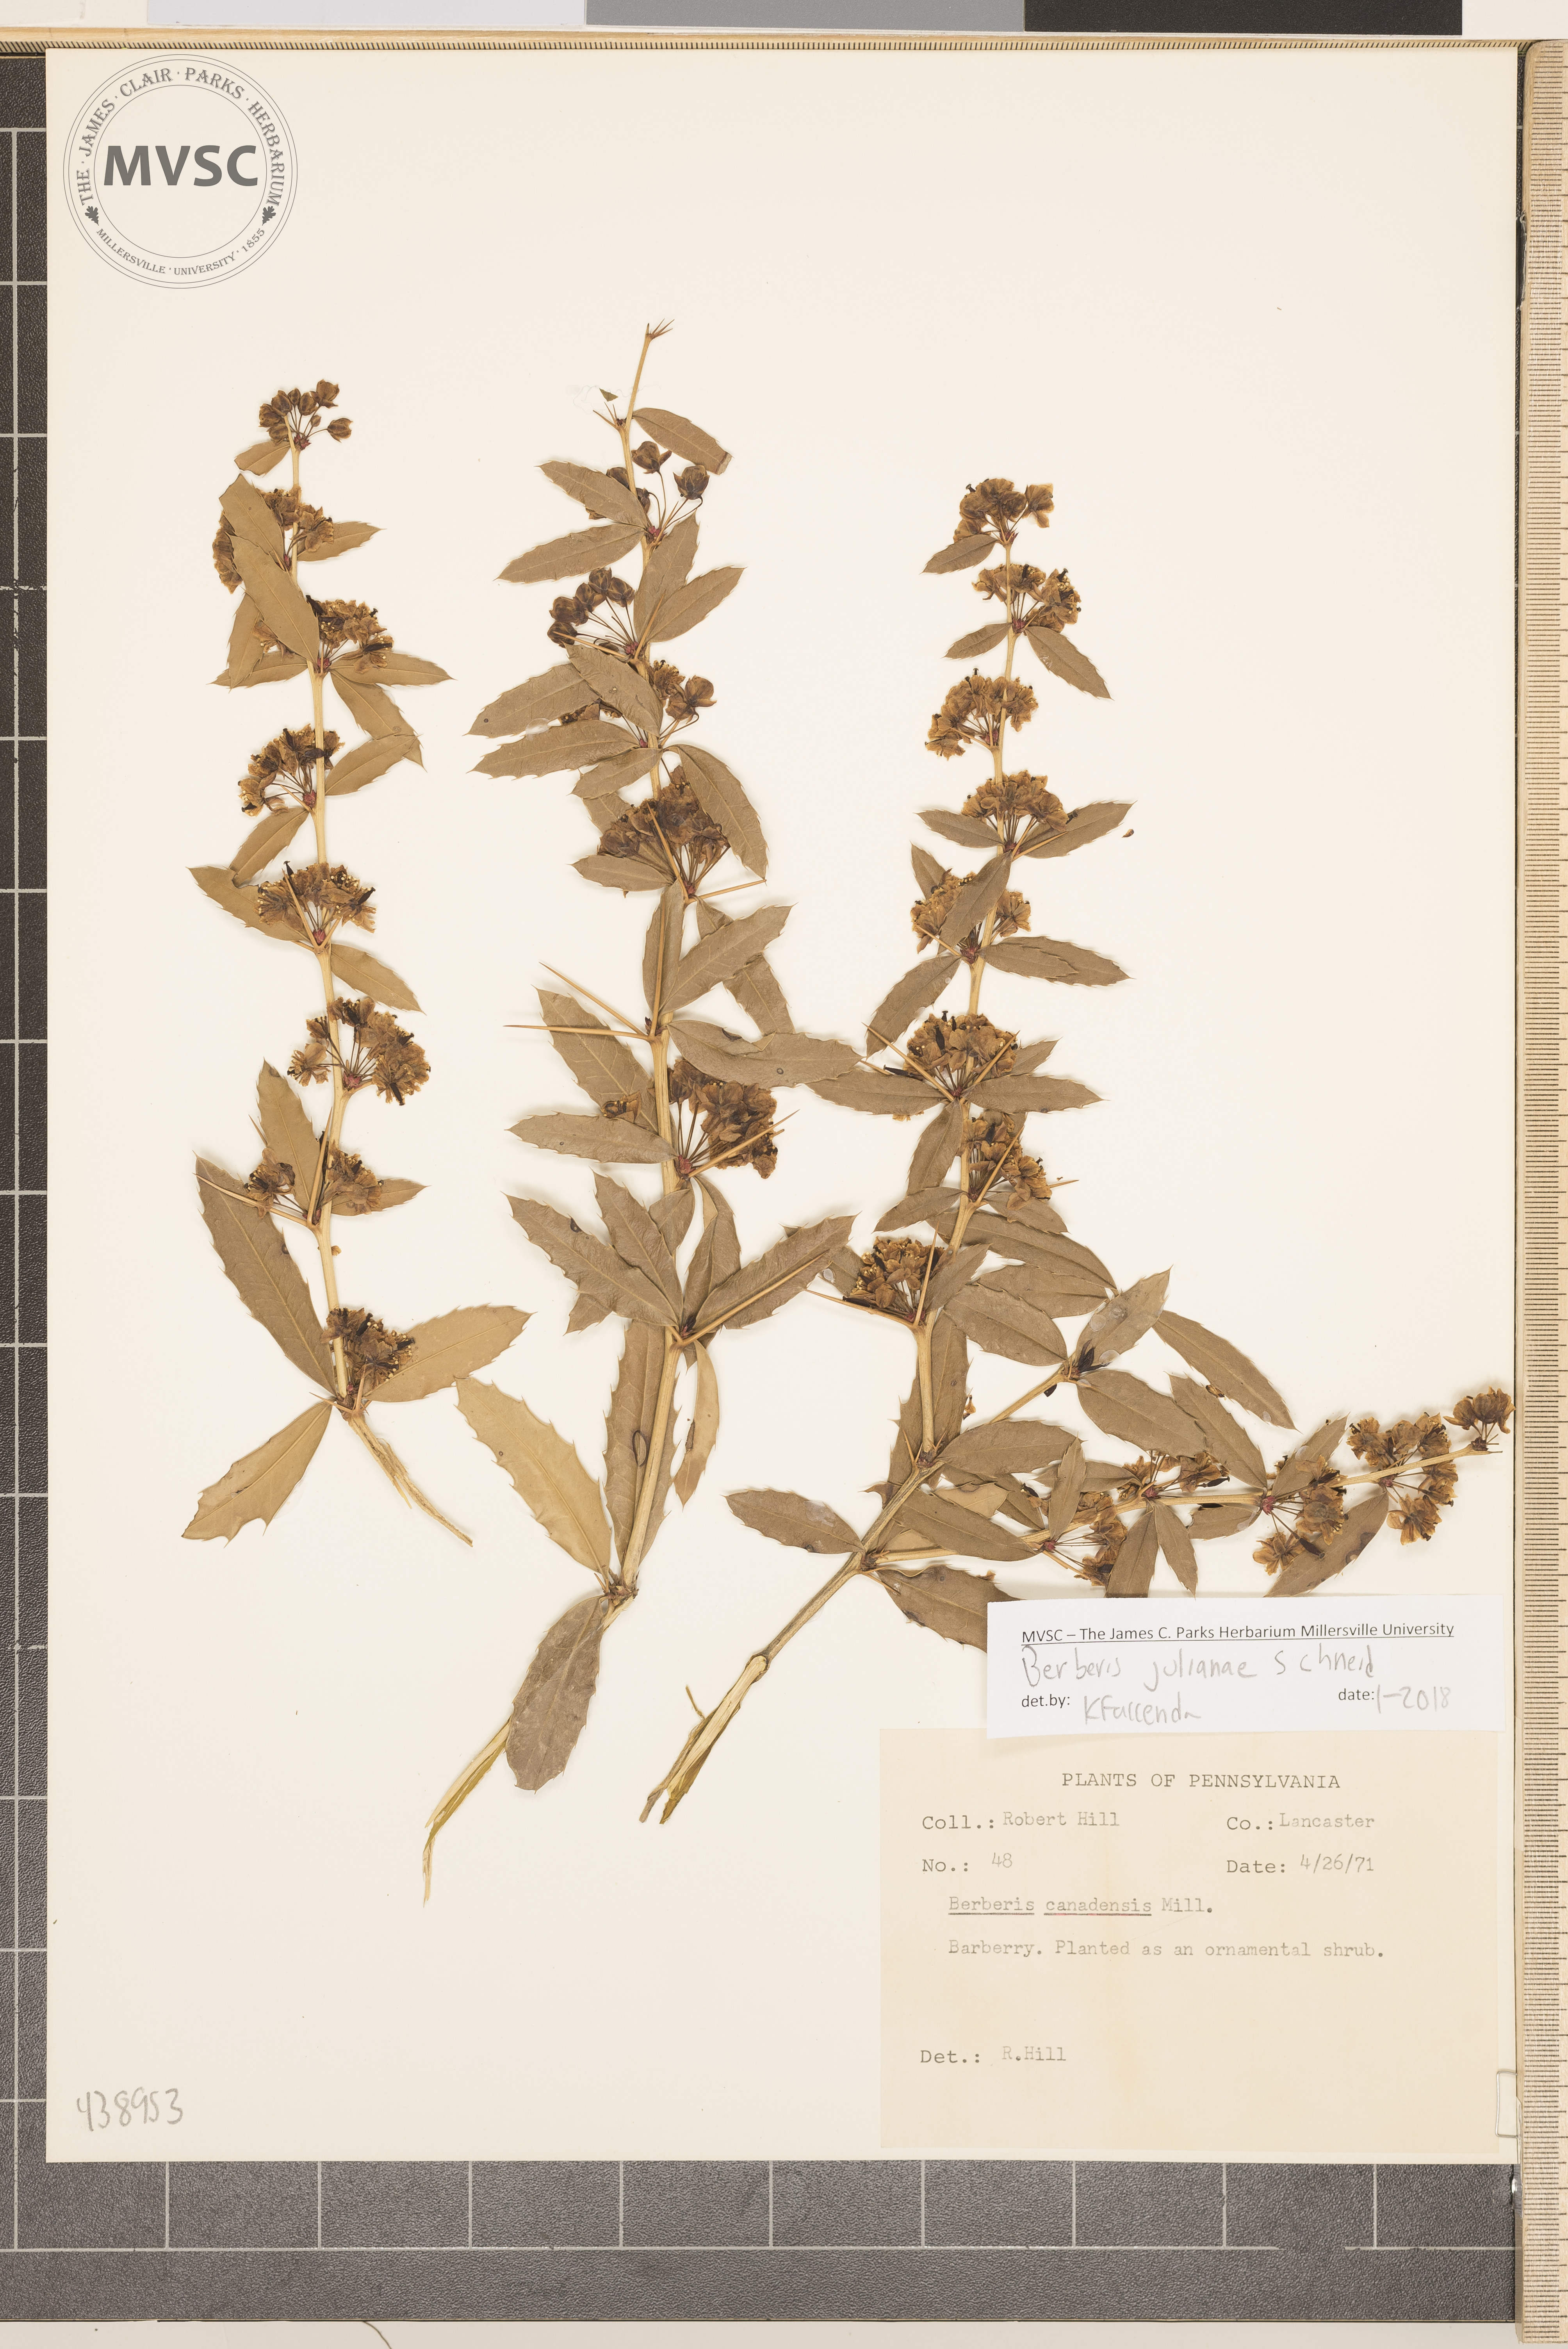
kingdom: Plantae
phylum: Tracheophyta
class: Magnoliopsida
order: Ranunculales
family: Berberidaceae
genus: Berberis
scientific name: Berberis julianae
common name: Wintergreen barberry
